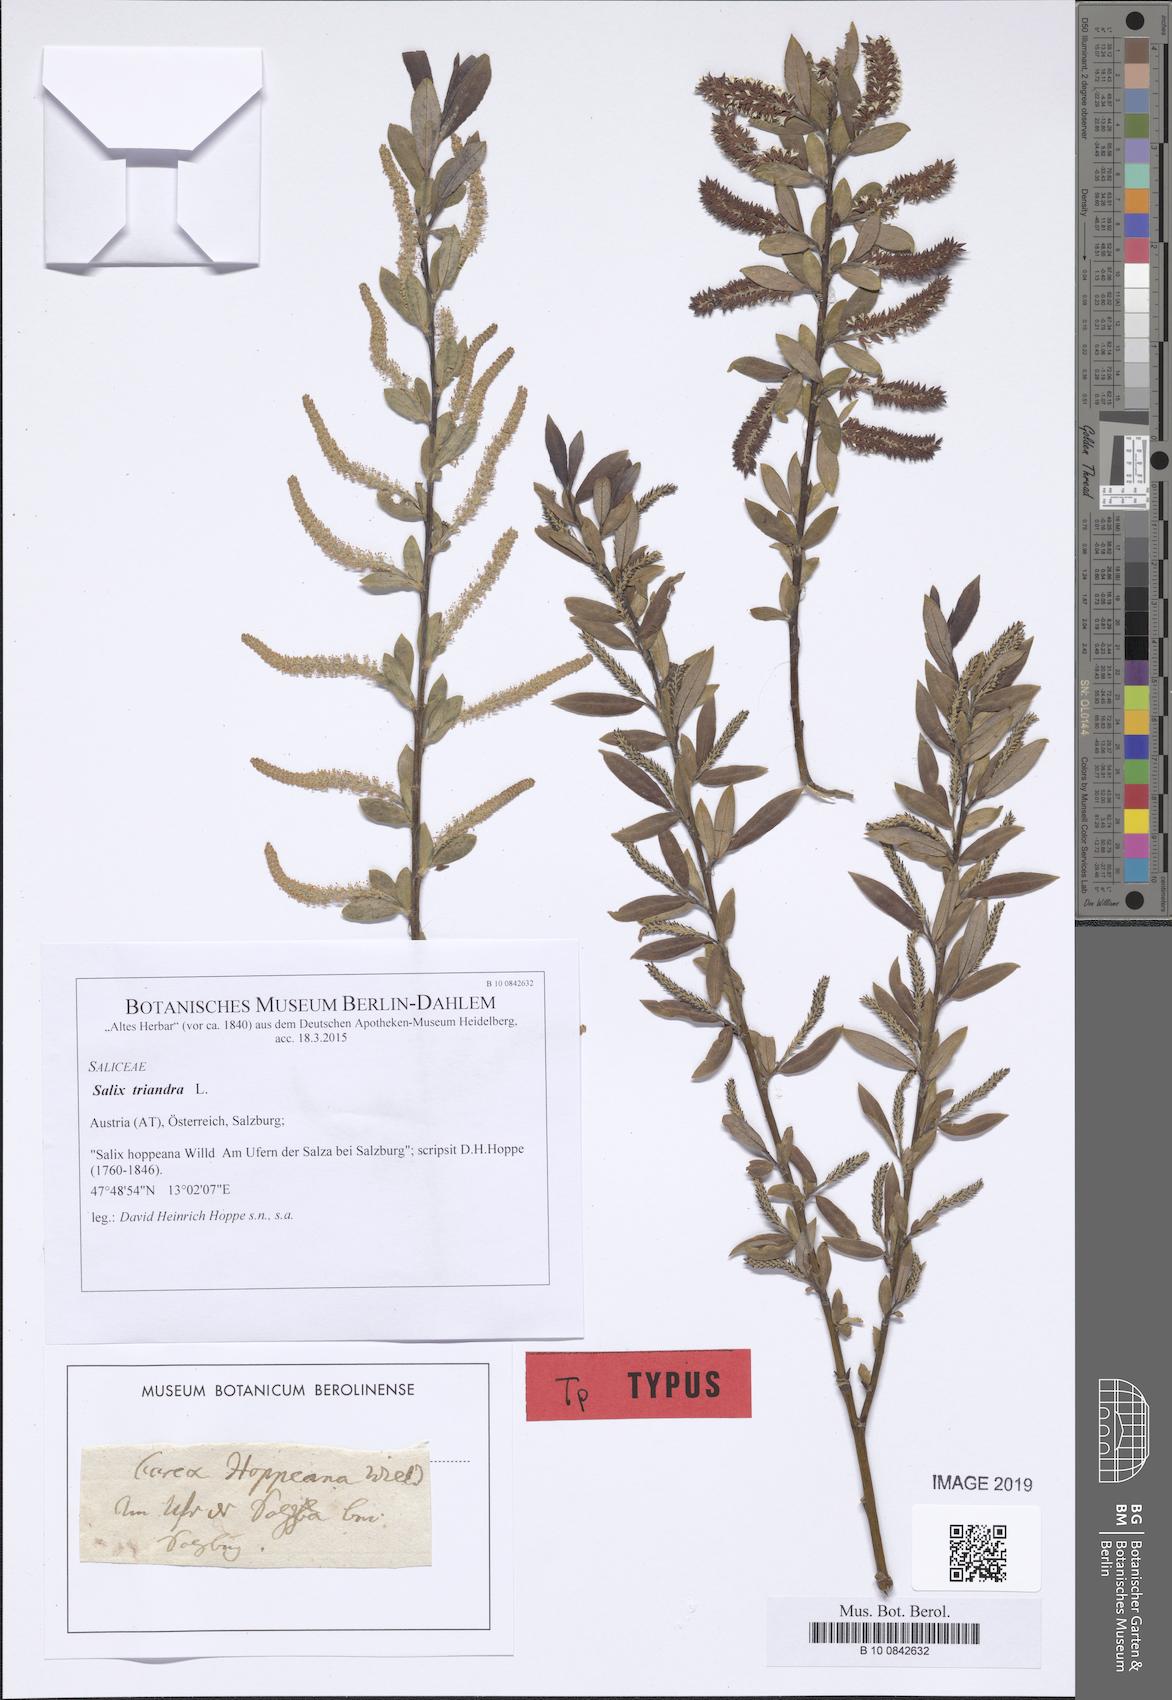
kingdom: Plantae
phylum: Tracheophyta
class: Magnoliopsida
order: Malpighiales
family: Salicaceae
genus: Salix
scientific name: Salix triandra
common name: Almond willow
